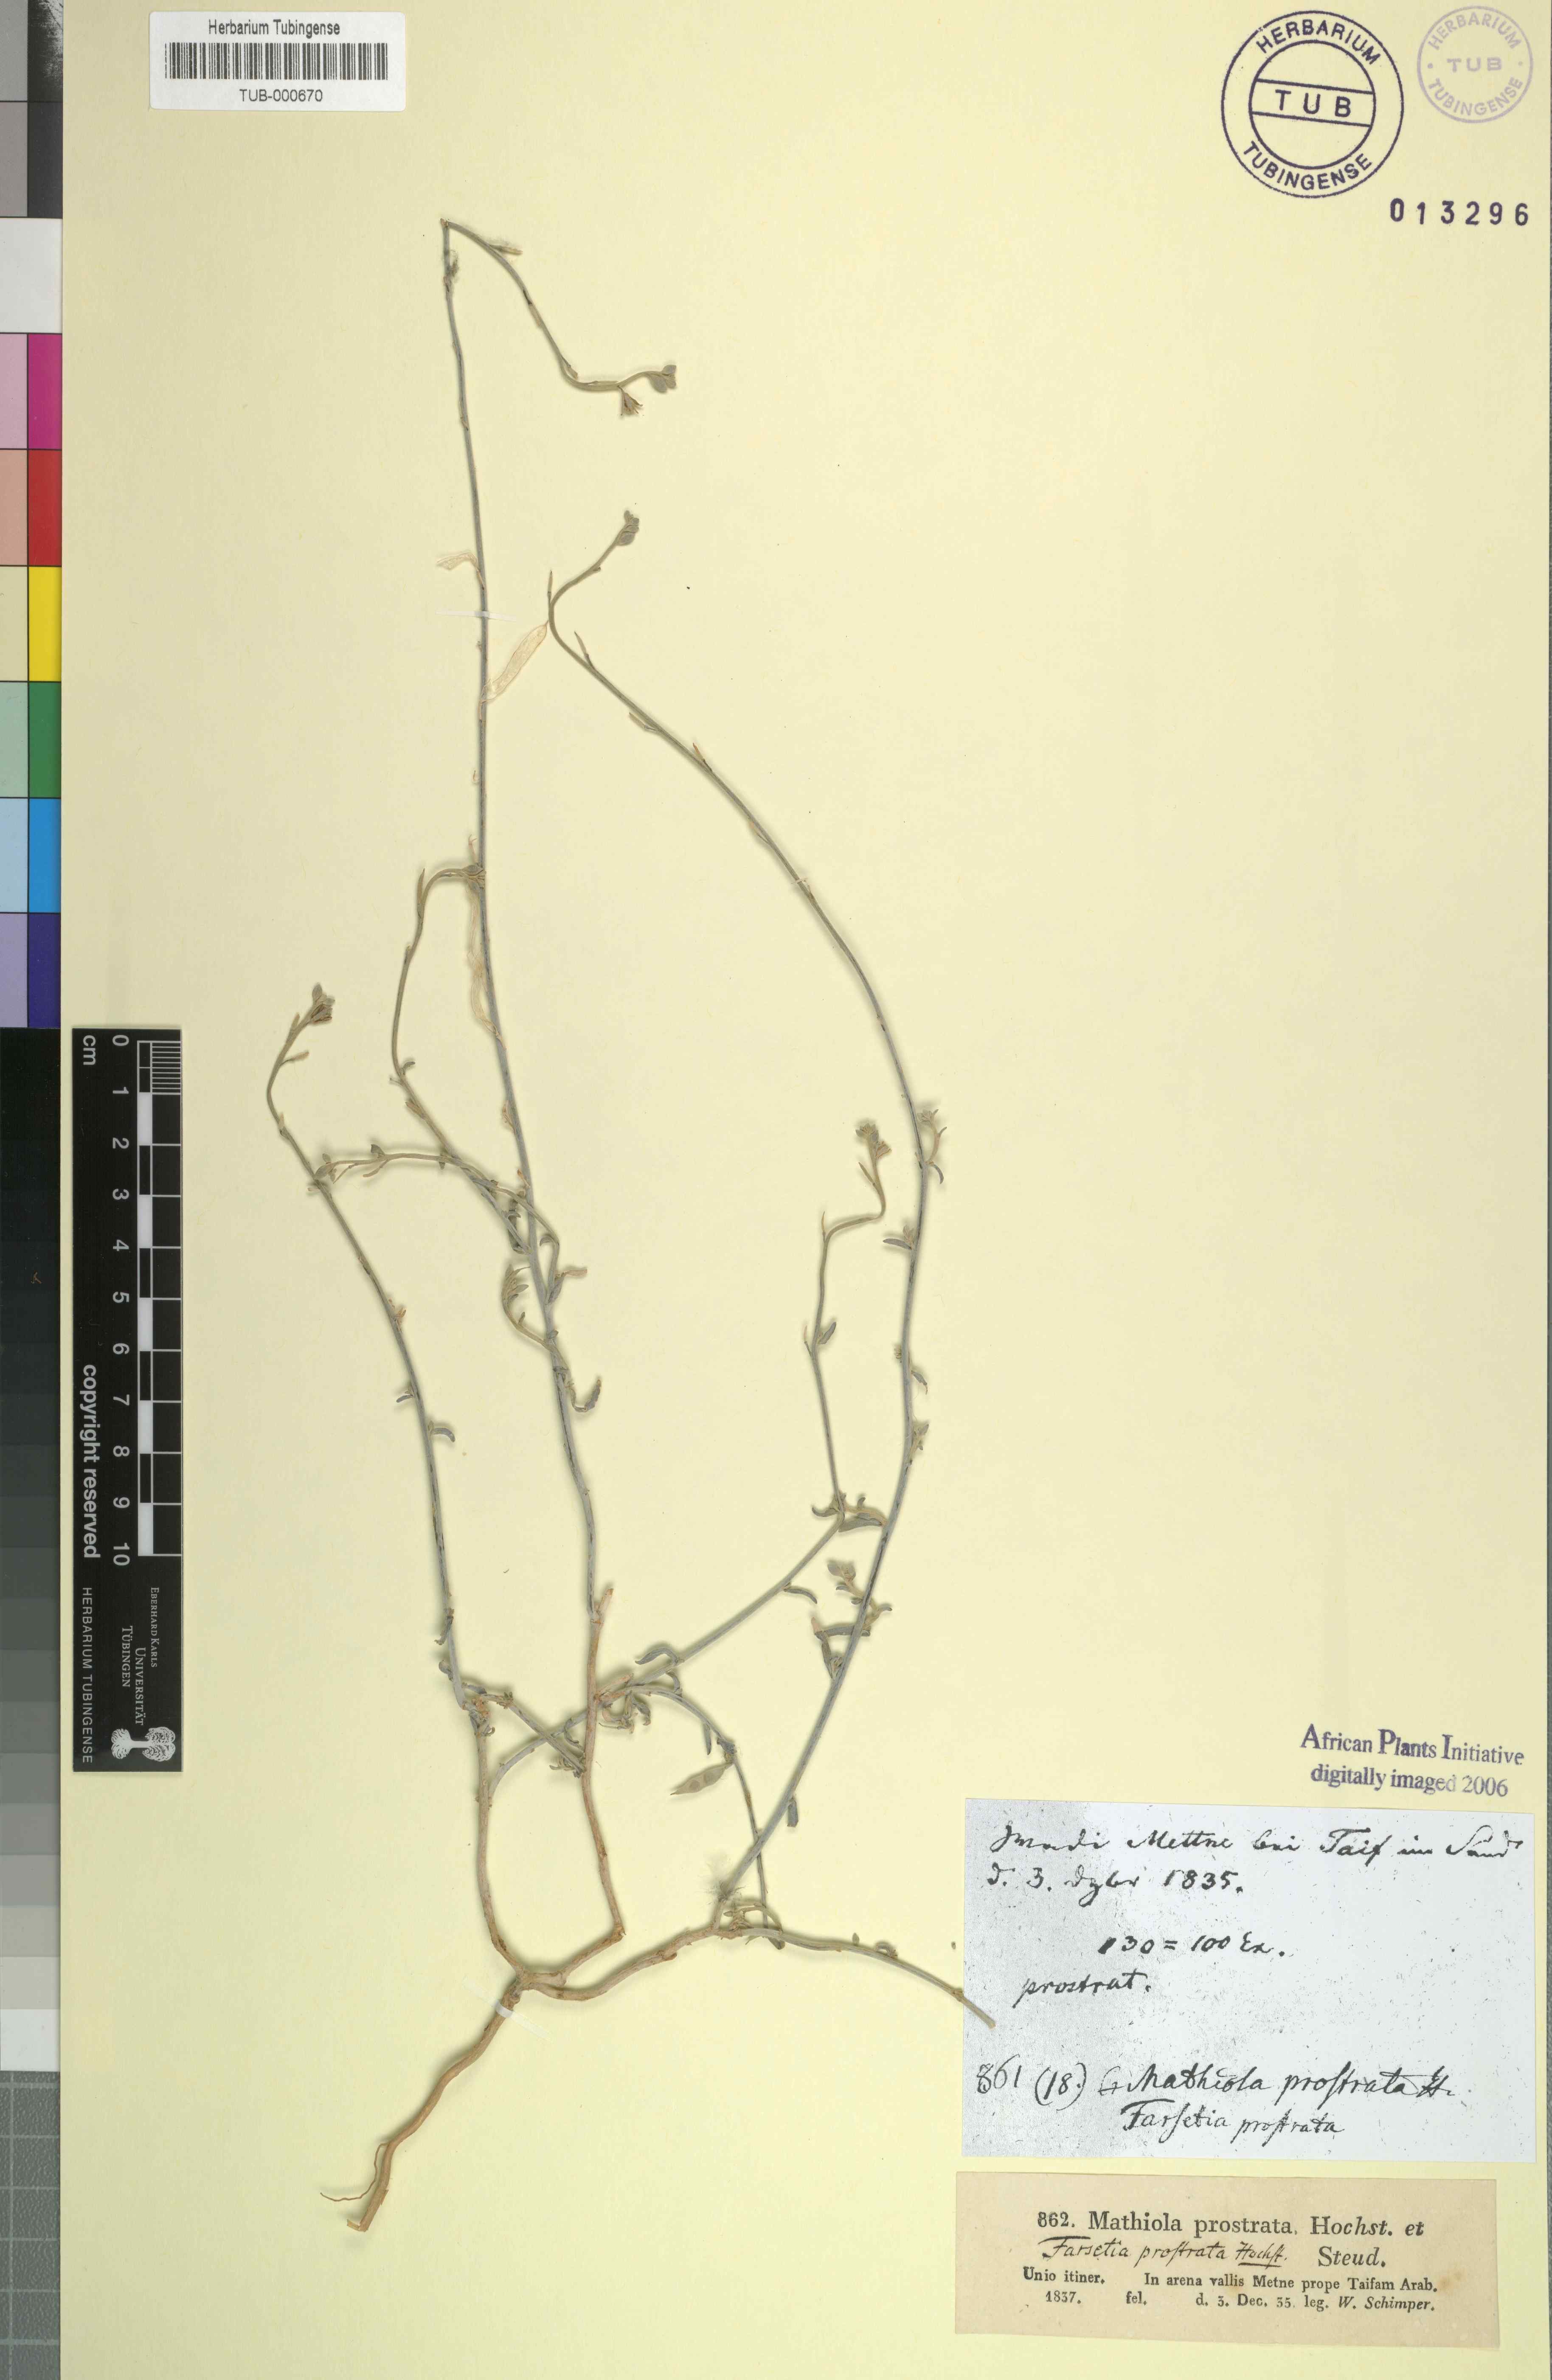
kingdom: Plantae
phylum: Tracheophyta
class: Magnoliopsida
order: Brassicales
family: Brassicaceae
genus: Farsetia
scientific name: Farsetia stylosa
